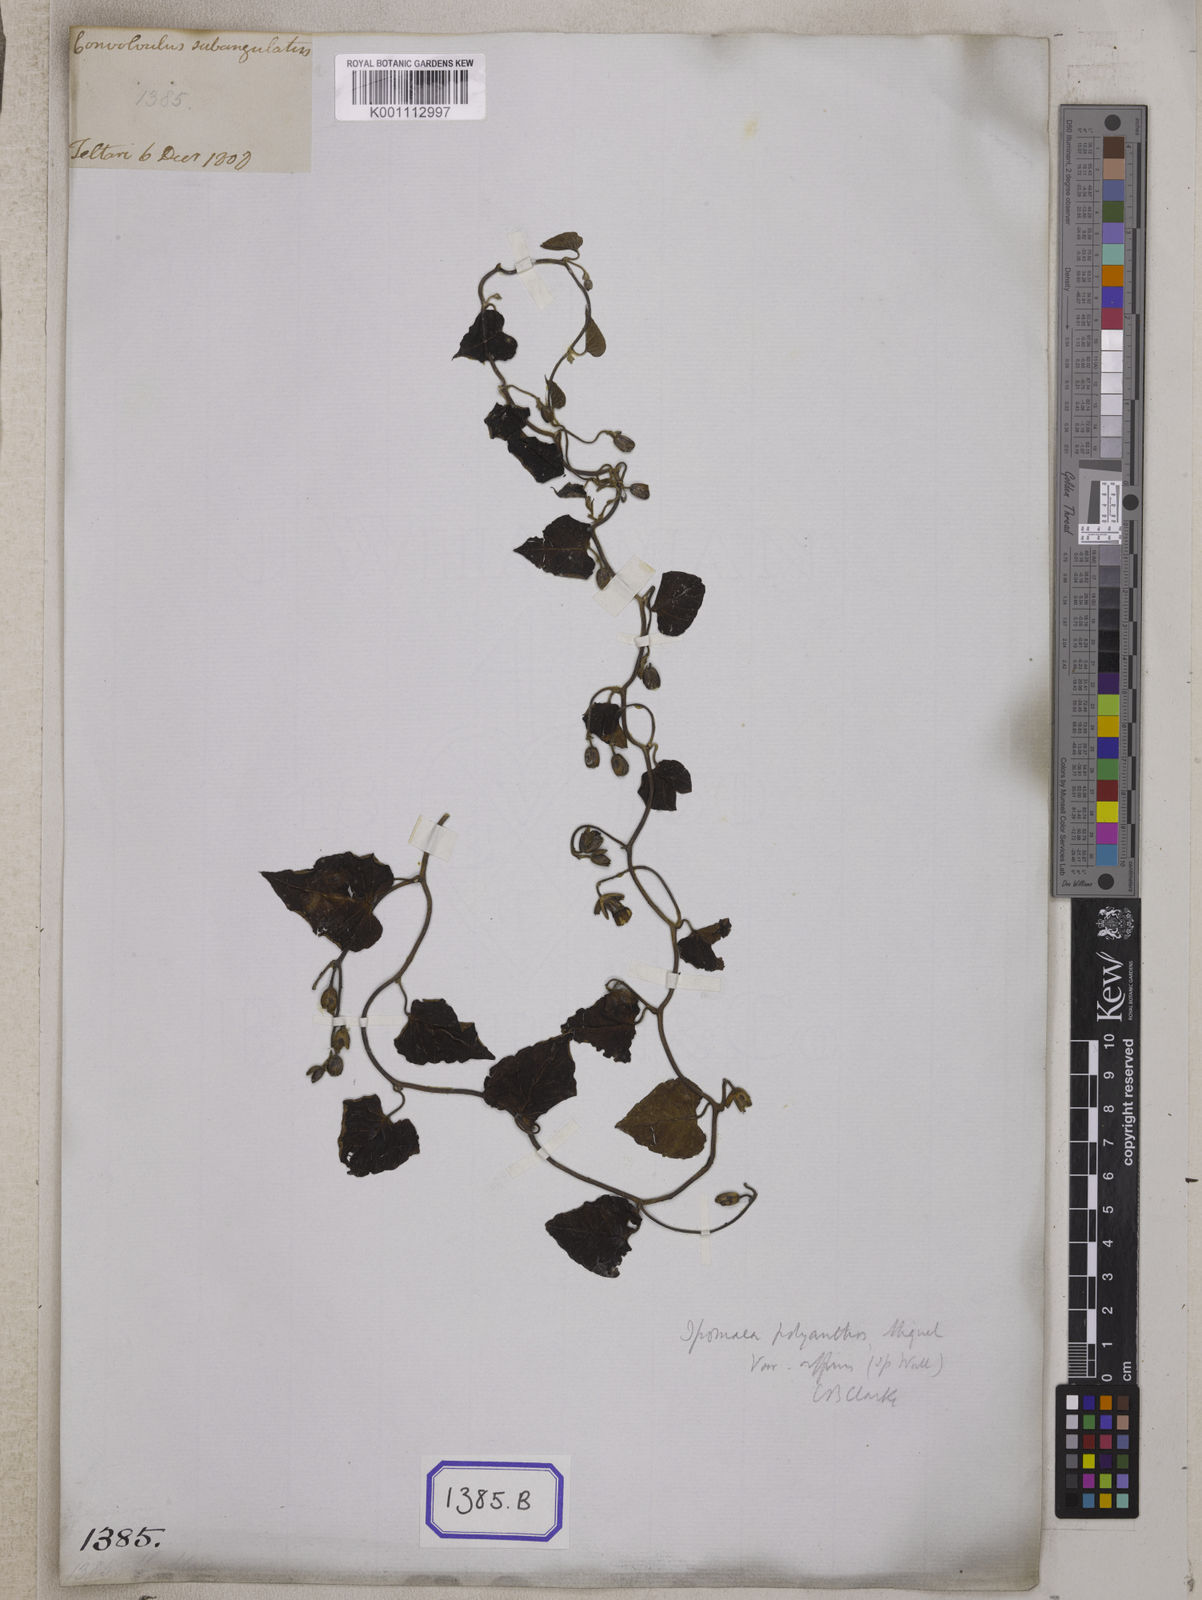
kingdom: Plantae
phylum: Tracheophyta
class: Magnoliopsida
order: Solanales
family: Convolvulaceae
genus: Convolvulus
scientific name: Convolvulus
